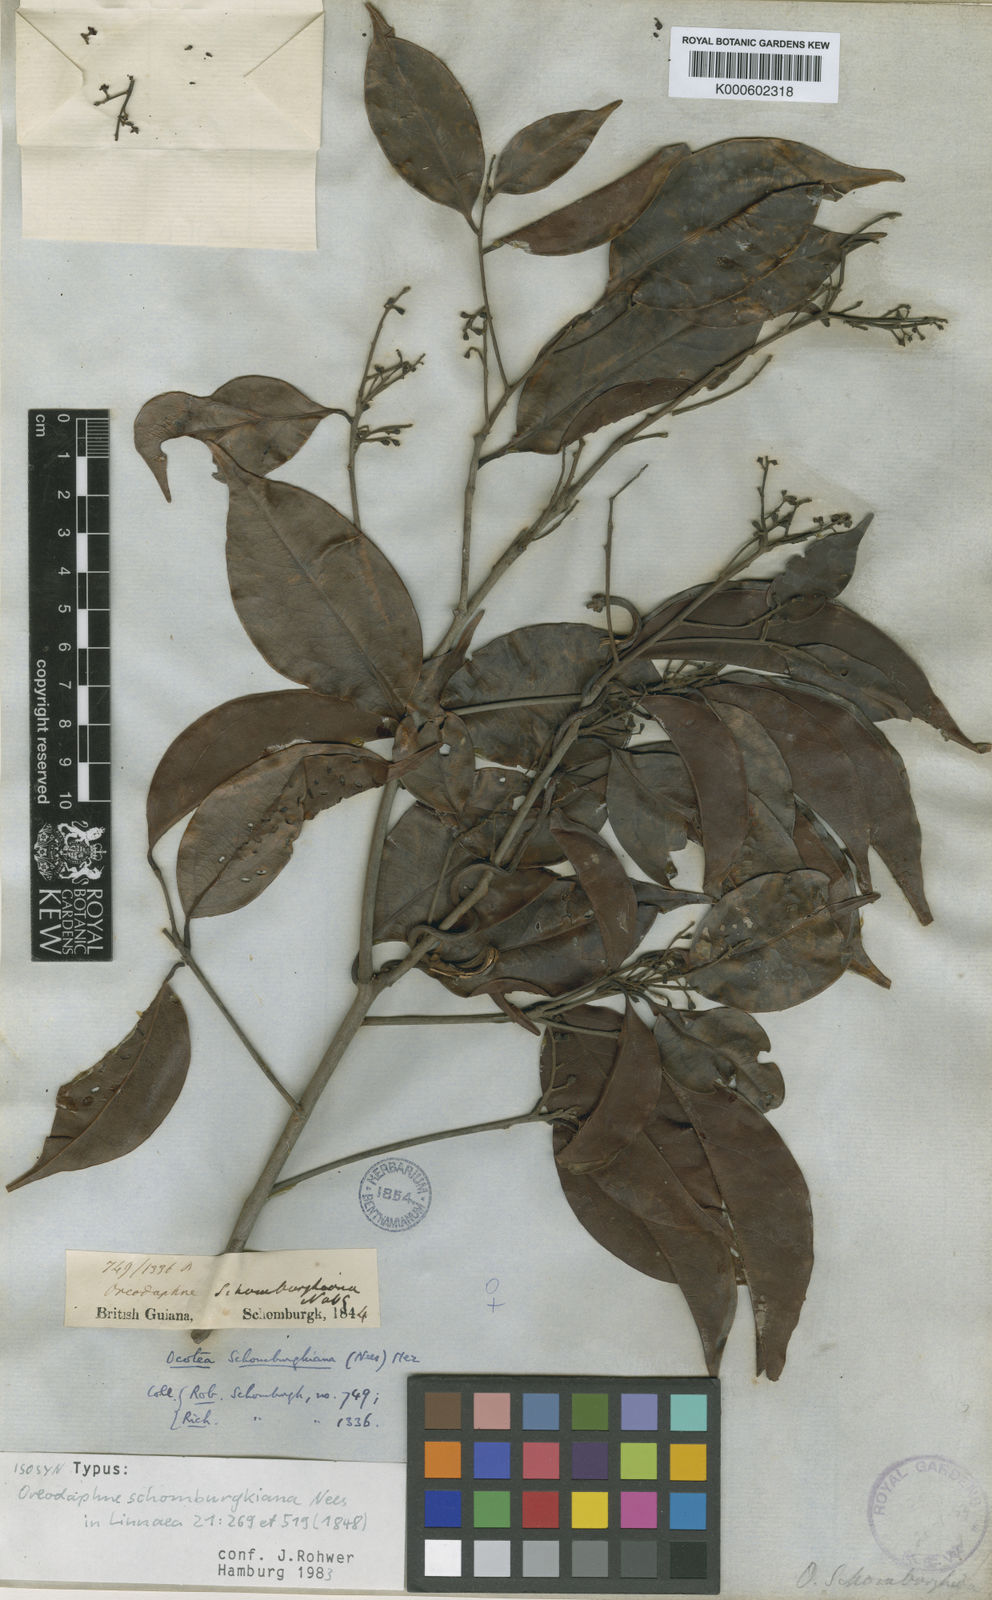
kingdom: Plantae
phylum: Tracheophyta
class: Magnoliopsida
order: Laurales
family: Lauraceae
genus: Ocotea
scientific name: Ocotea schomburgkiana
